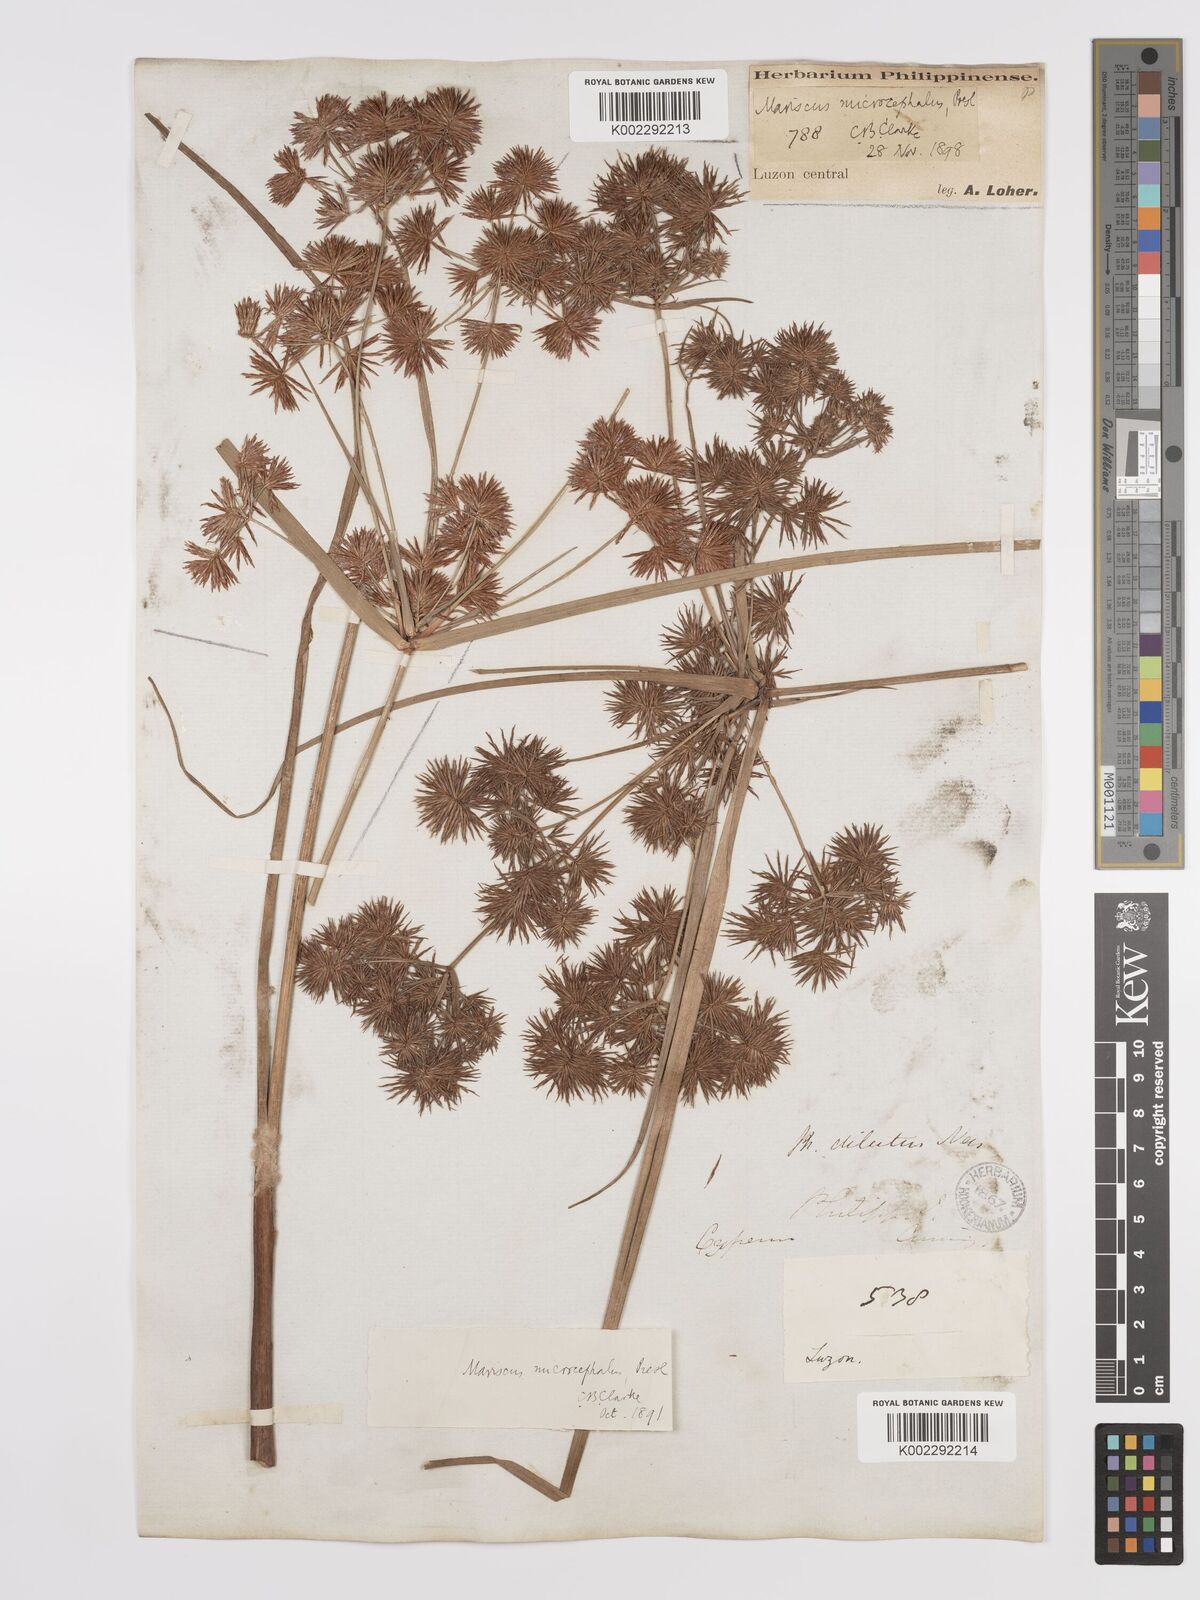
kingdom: Plantae
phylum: Tracheophyta
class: Liliopsida
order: Poales
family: Cyperaceae
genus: Cyperus
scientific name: Cyperus compactus
